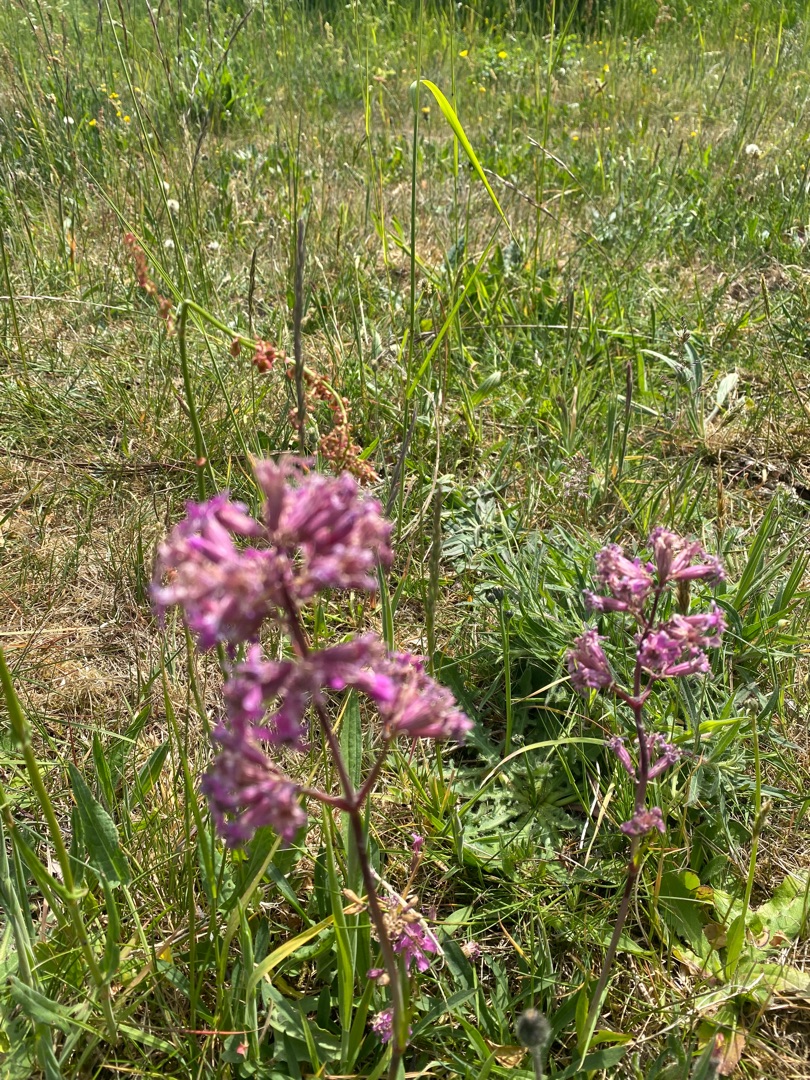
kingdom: Plantae
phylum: Tracheophyta
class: Magnoliopsida
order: Caryophyllales
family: Caryophyllaceae
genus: Viscaria
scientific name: Viscaria vulgaris
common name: Tjærenellike
